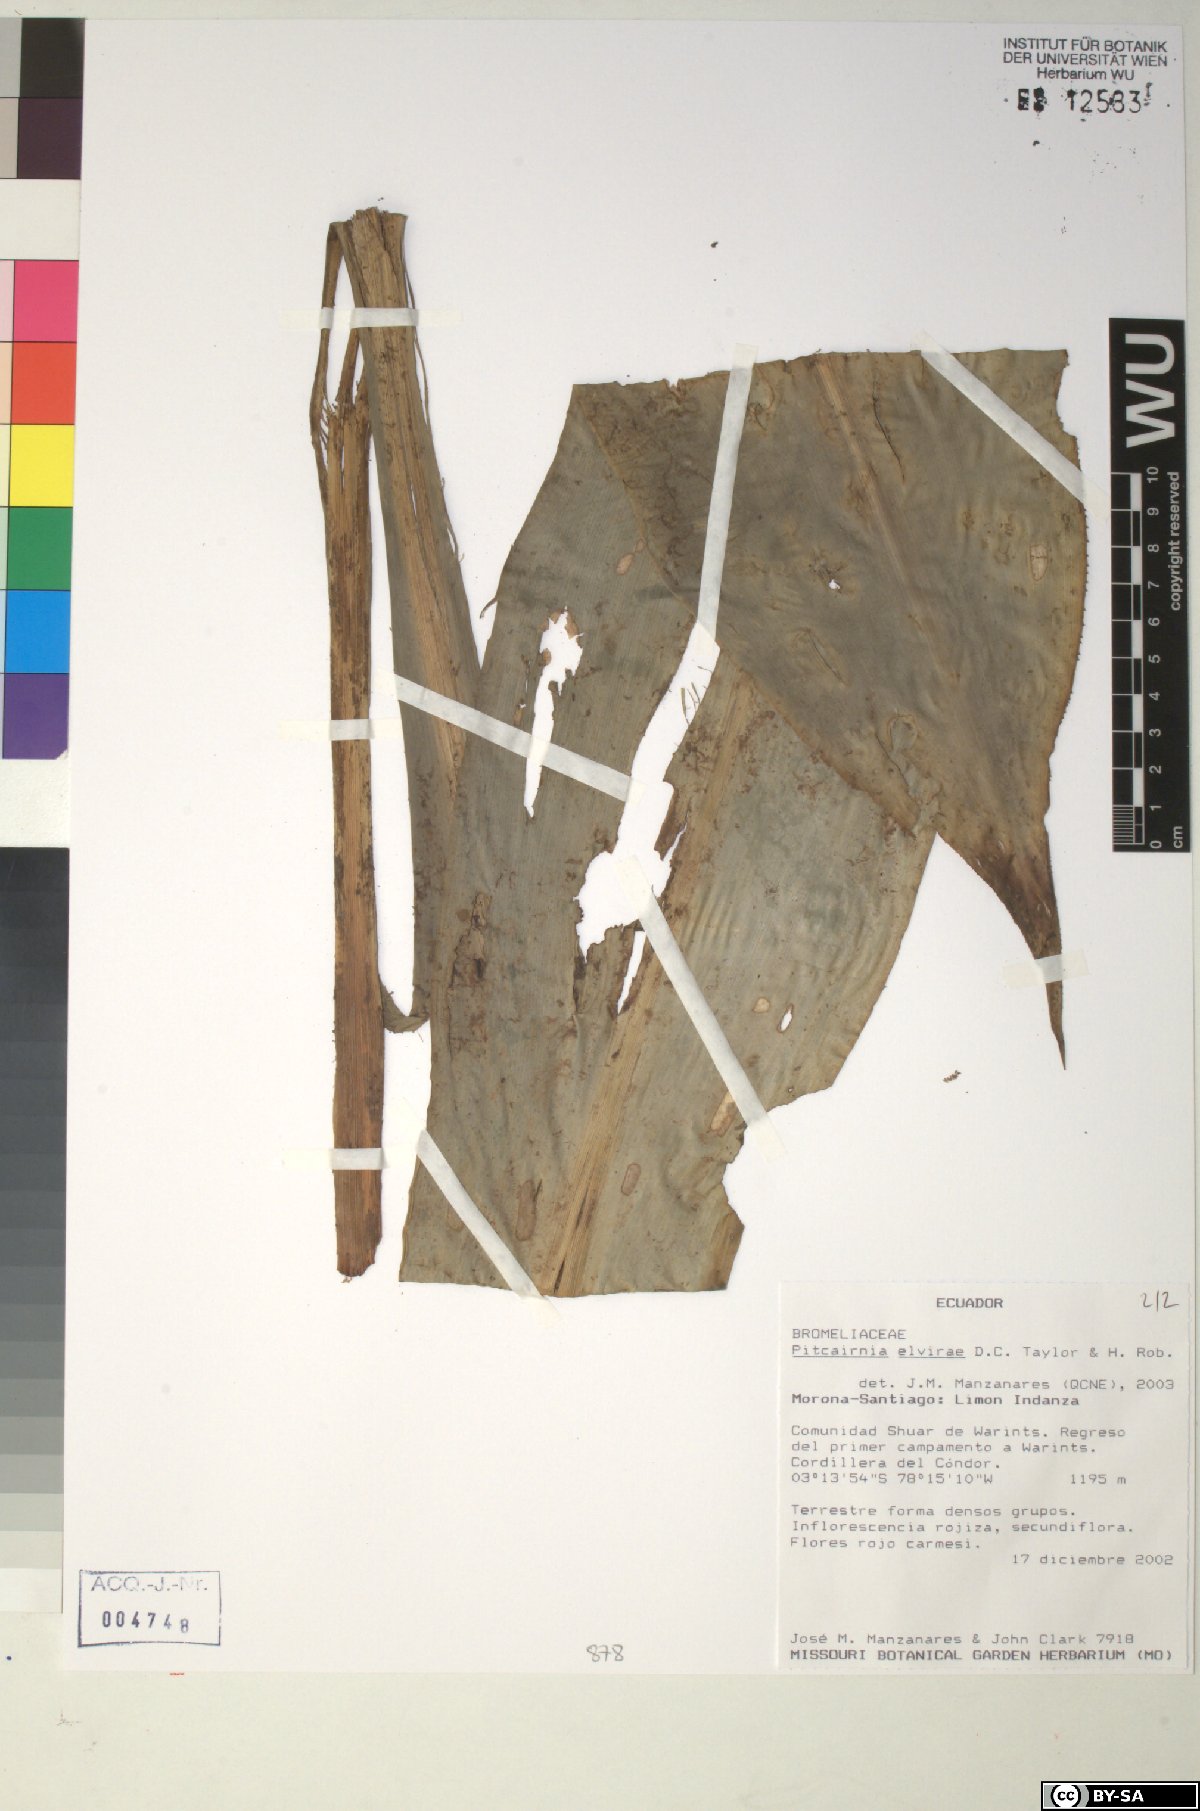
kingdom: Plantae
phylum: Tracheophyta
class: Liliopsida
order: Poales
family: Bromeliaceae
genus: Pitcairnia
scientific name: Pitcairnia elvirae
